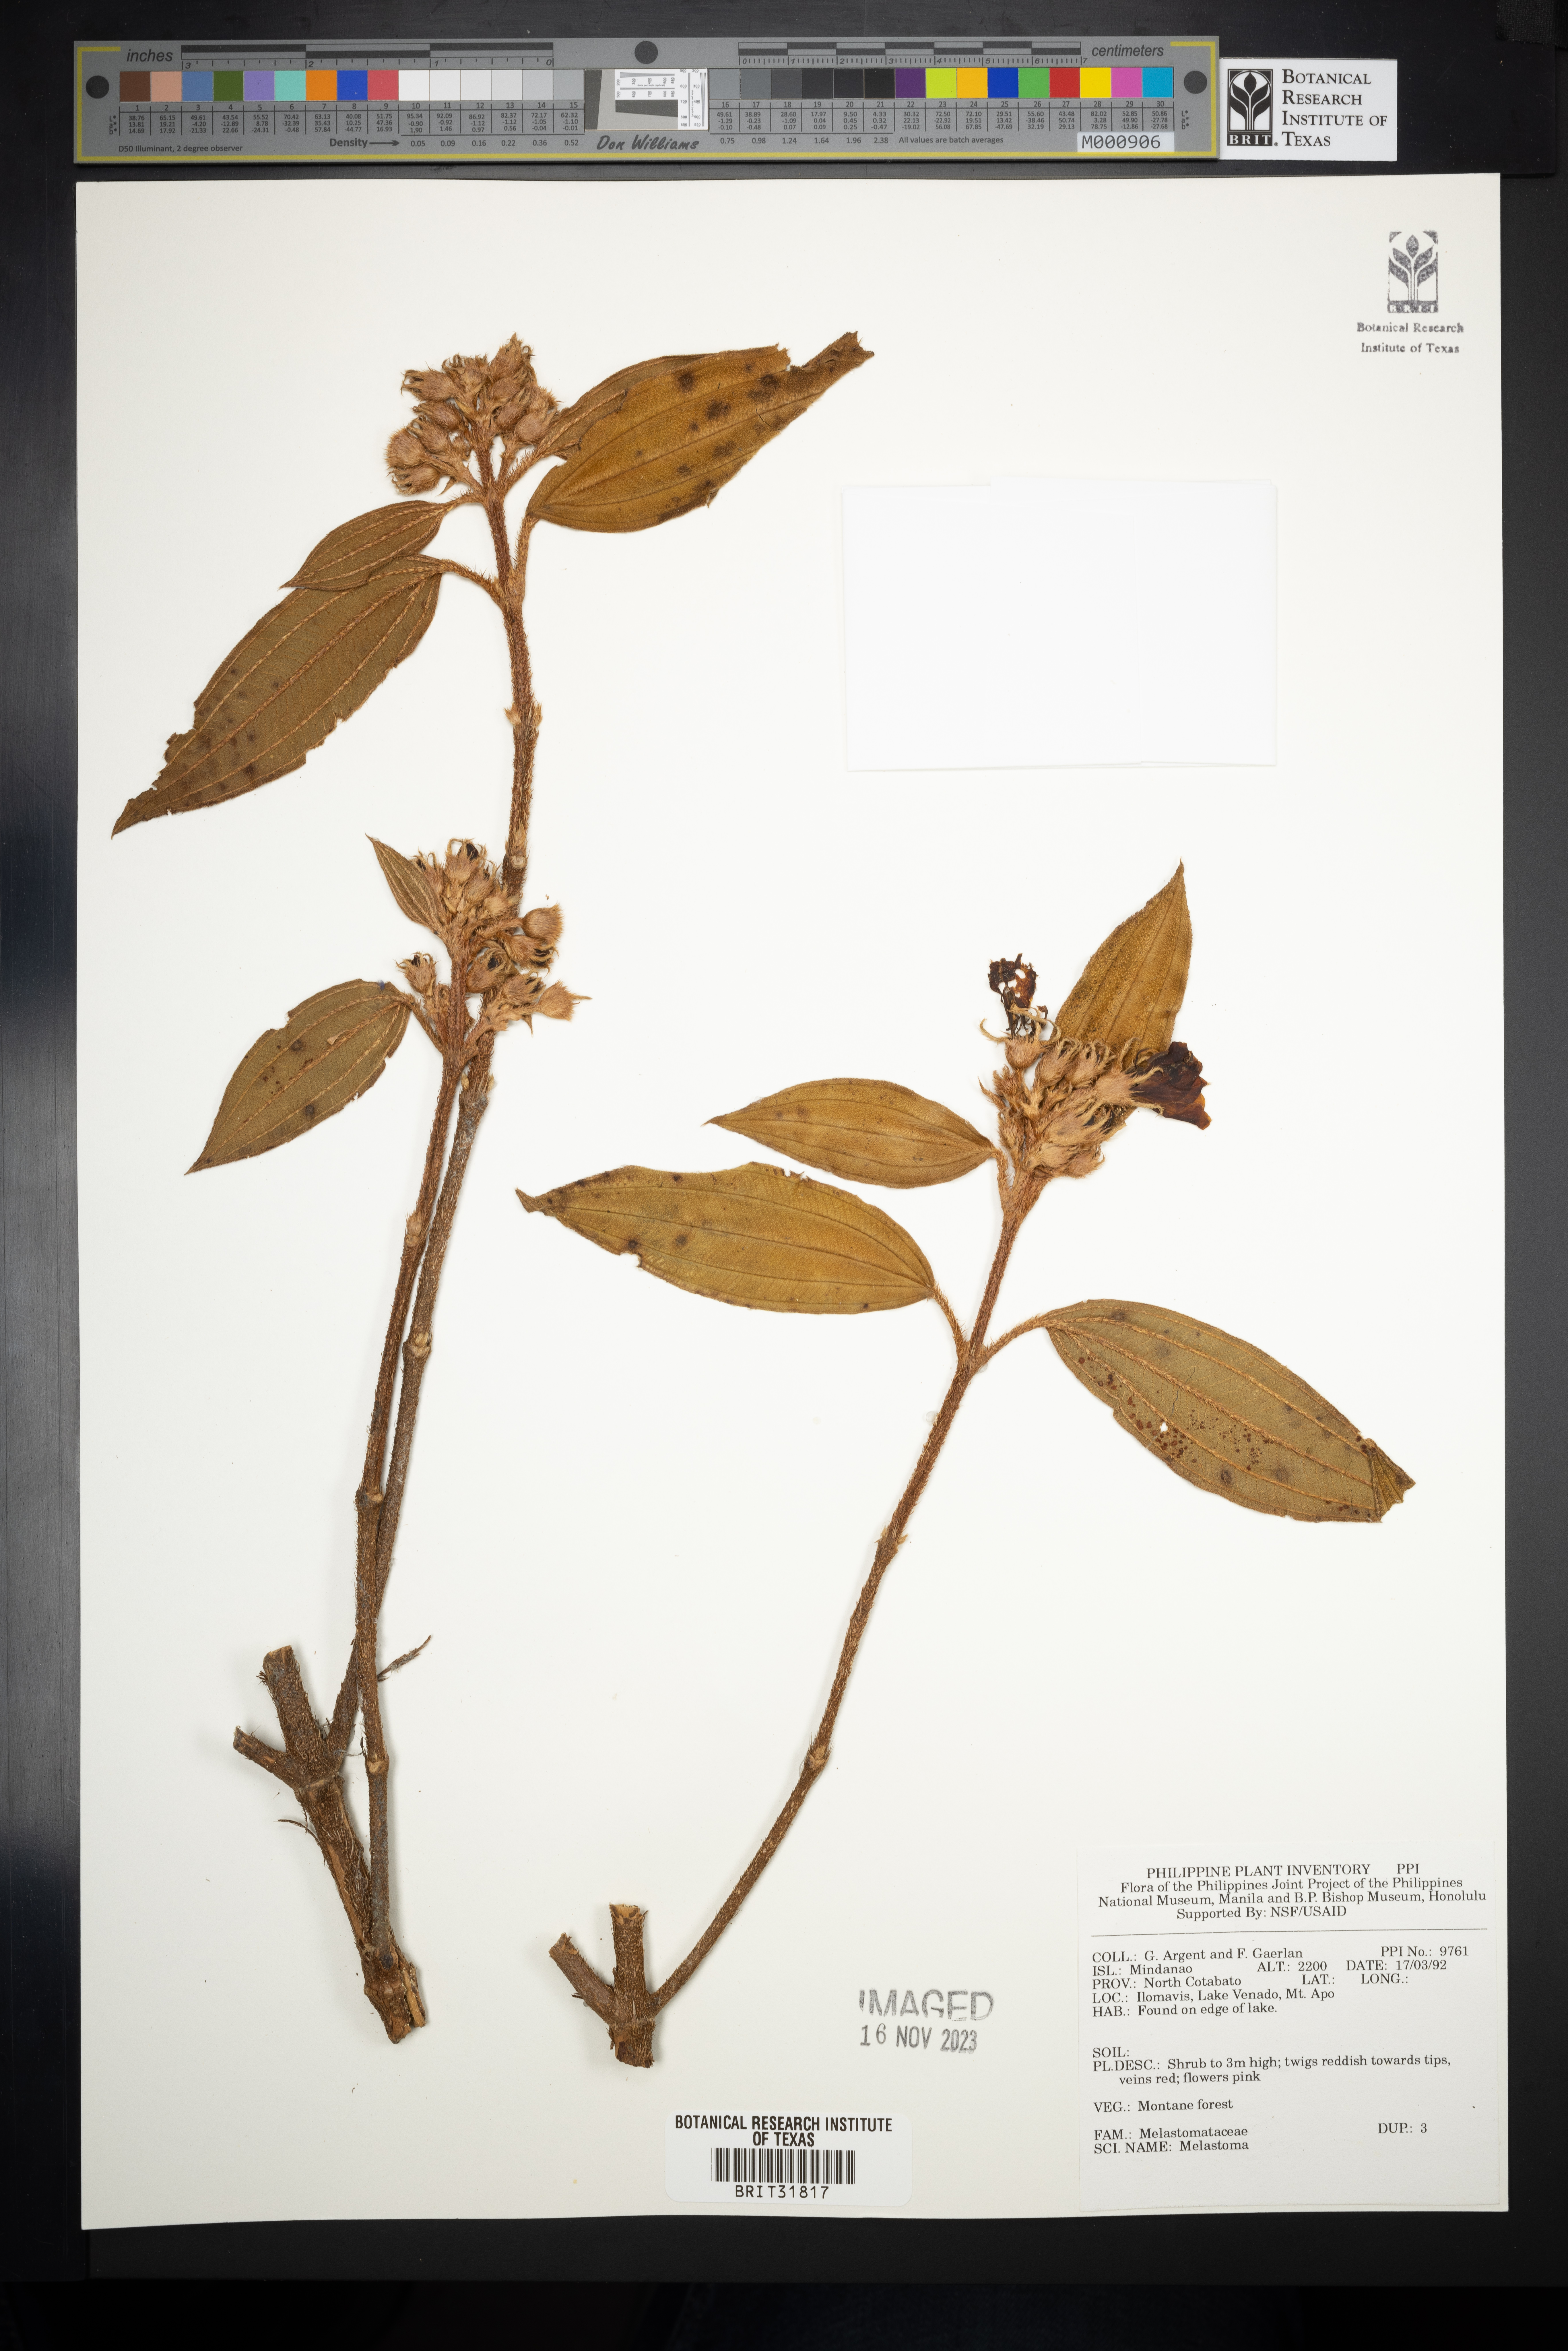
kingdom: Plantae
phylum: Tracheophyta
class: Magnoliopsida
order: Myrtales
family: Melastomataceae
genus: Melastoma
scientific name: Melastoma
